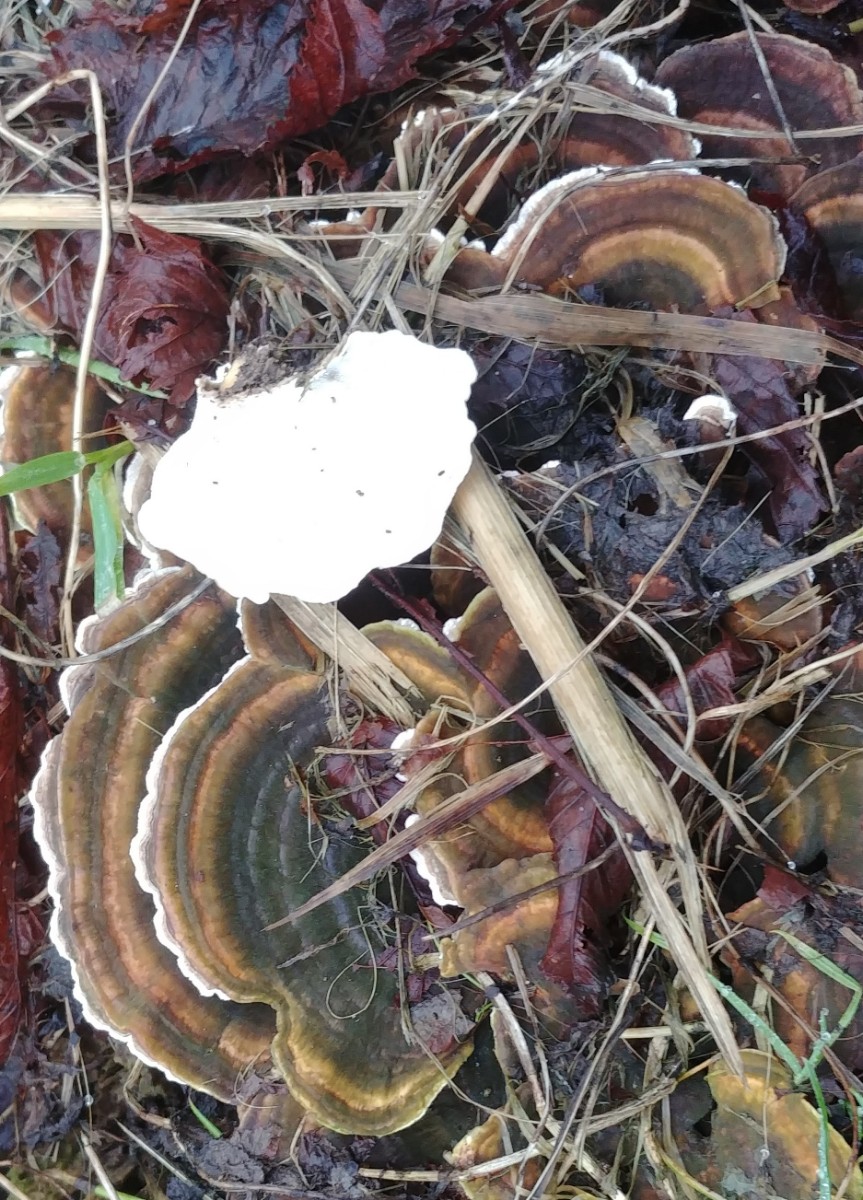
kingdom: Fungi
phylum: Basidiomycota
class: Agaricomycetes
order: Polyporales
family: Polyporaceae
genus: Trametes
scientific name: Trametes versicolor
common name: broget læderporesvamp
